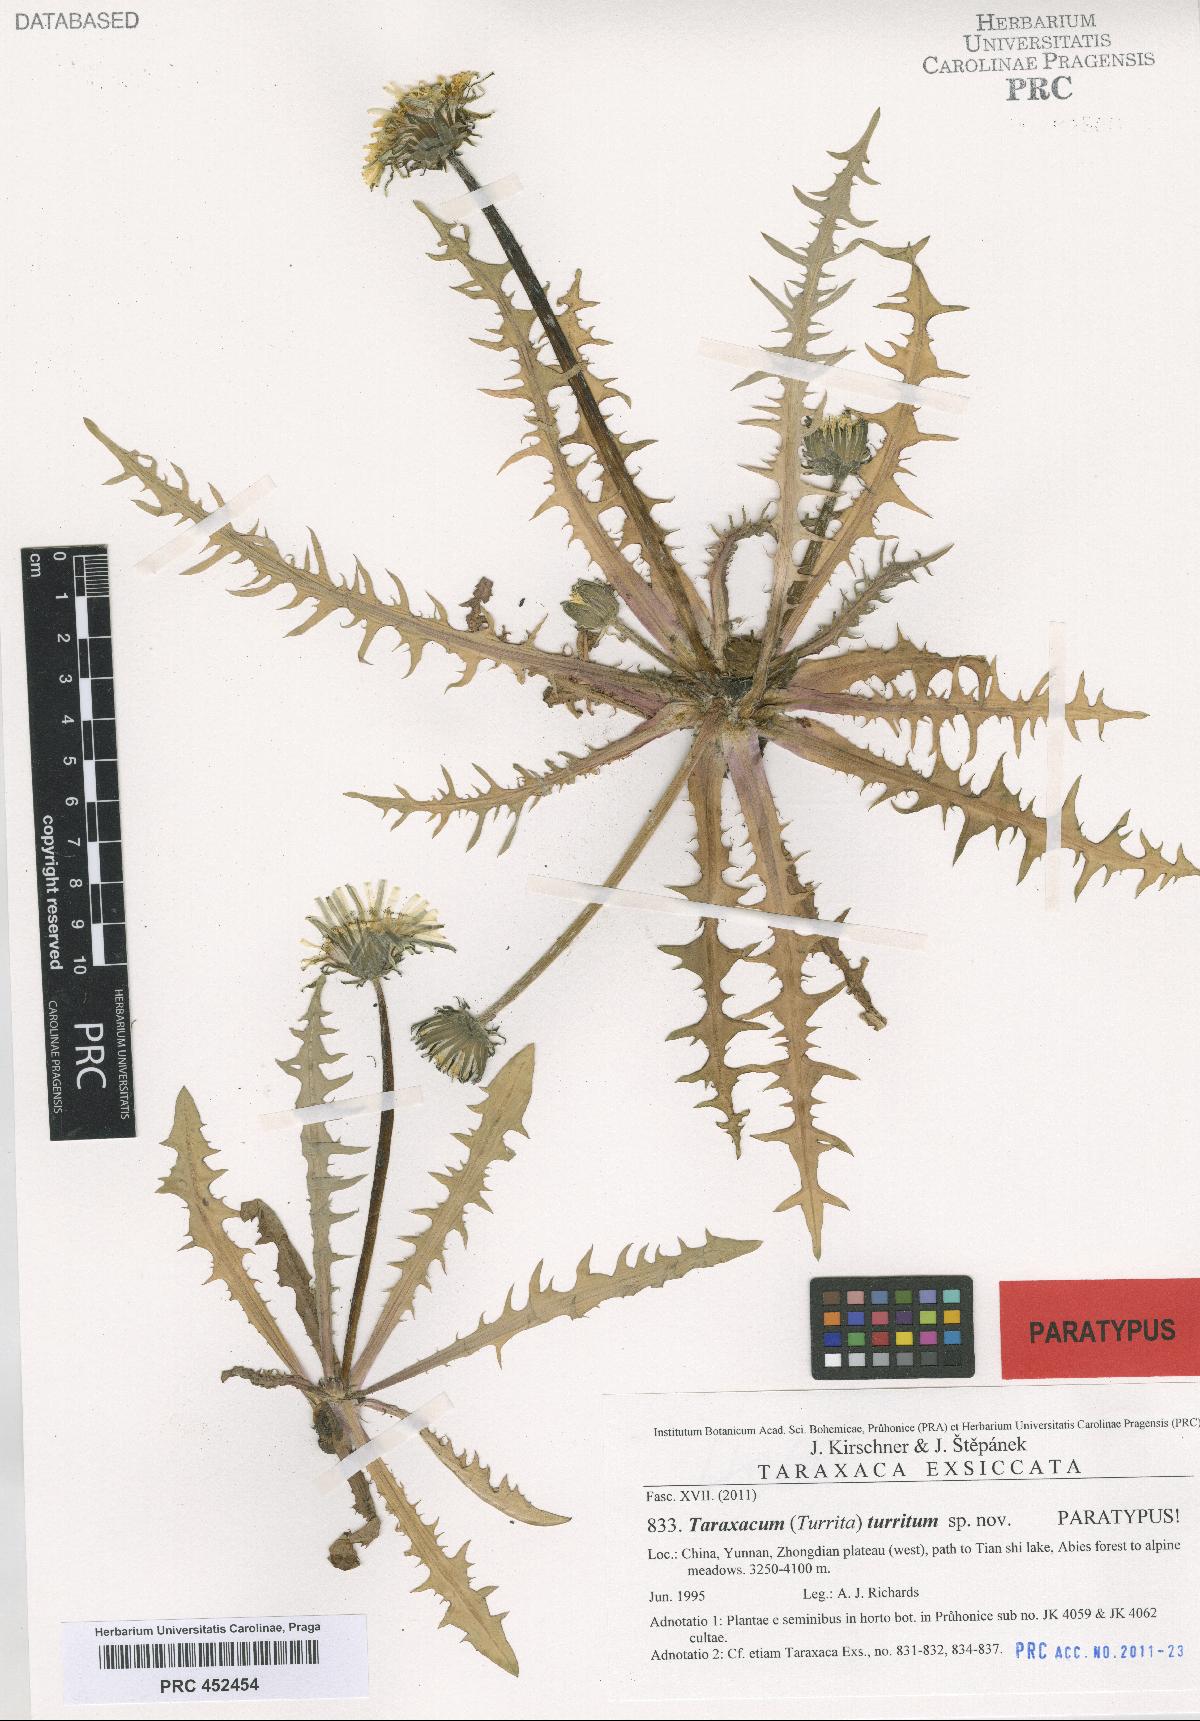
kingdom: Plantae
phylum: Tracheophyta
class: Magnoliopsida
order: Asterales
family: Asteraceae
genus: Taraxacum
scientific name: Taraxacum turritum
